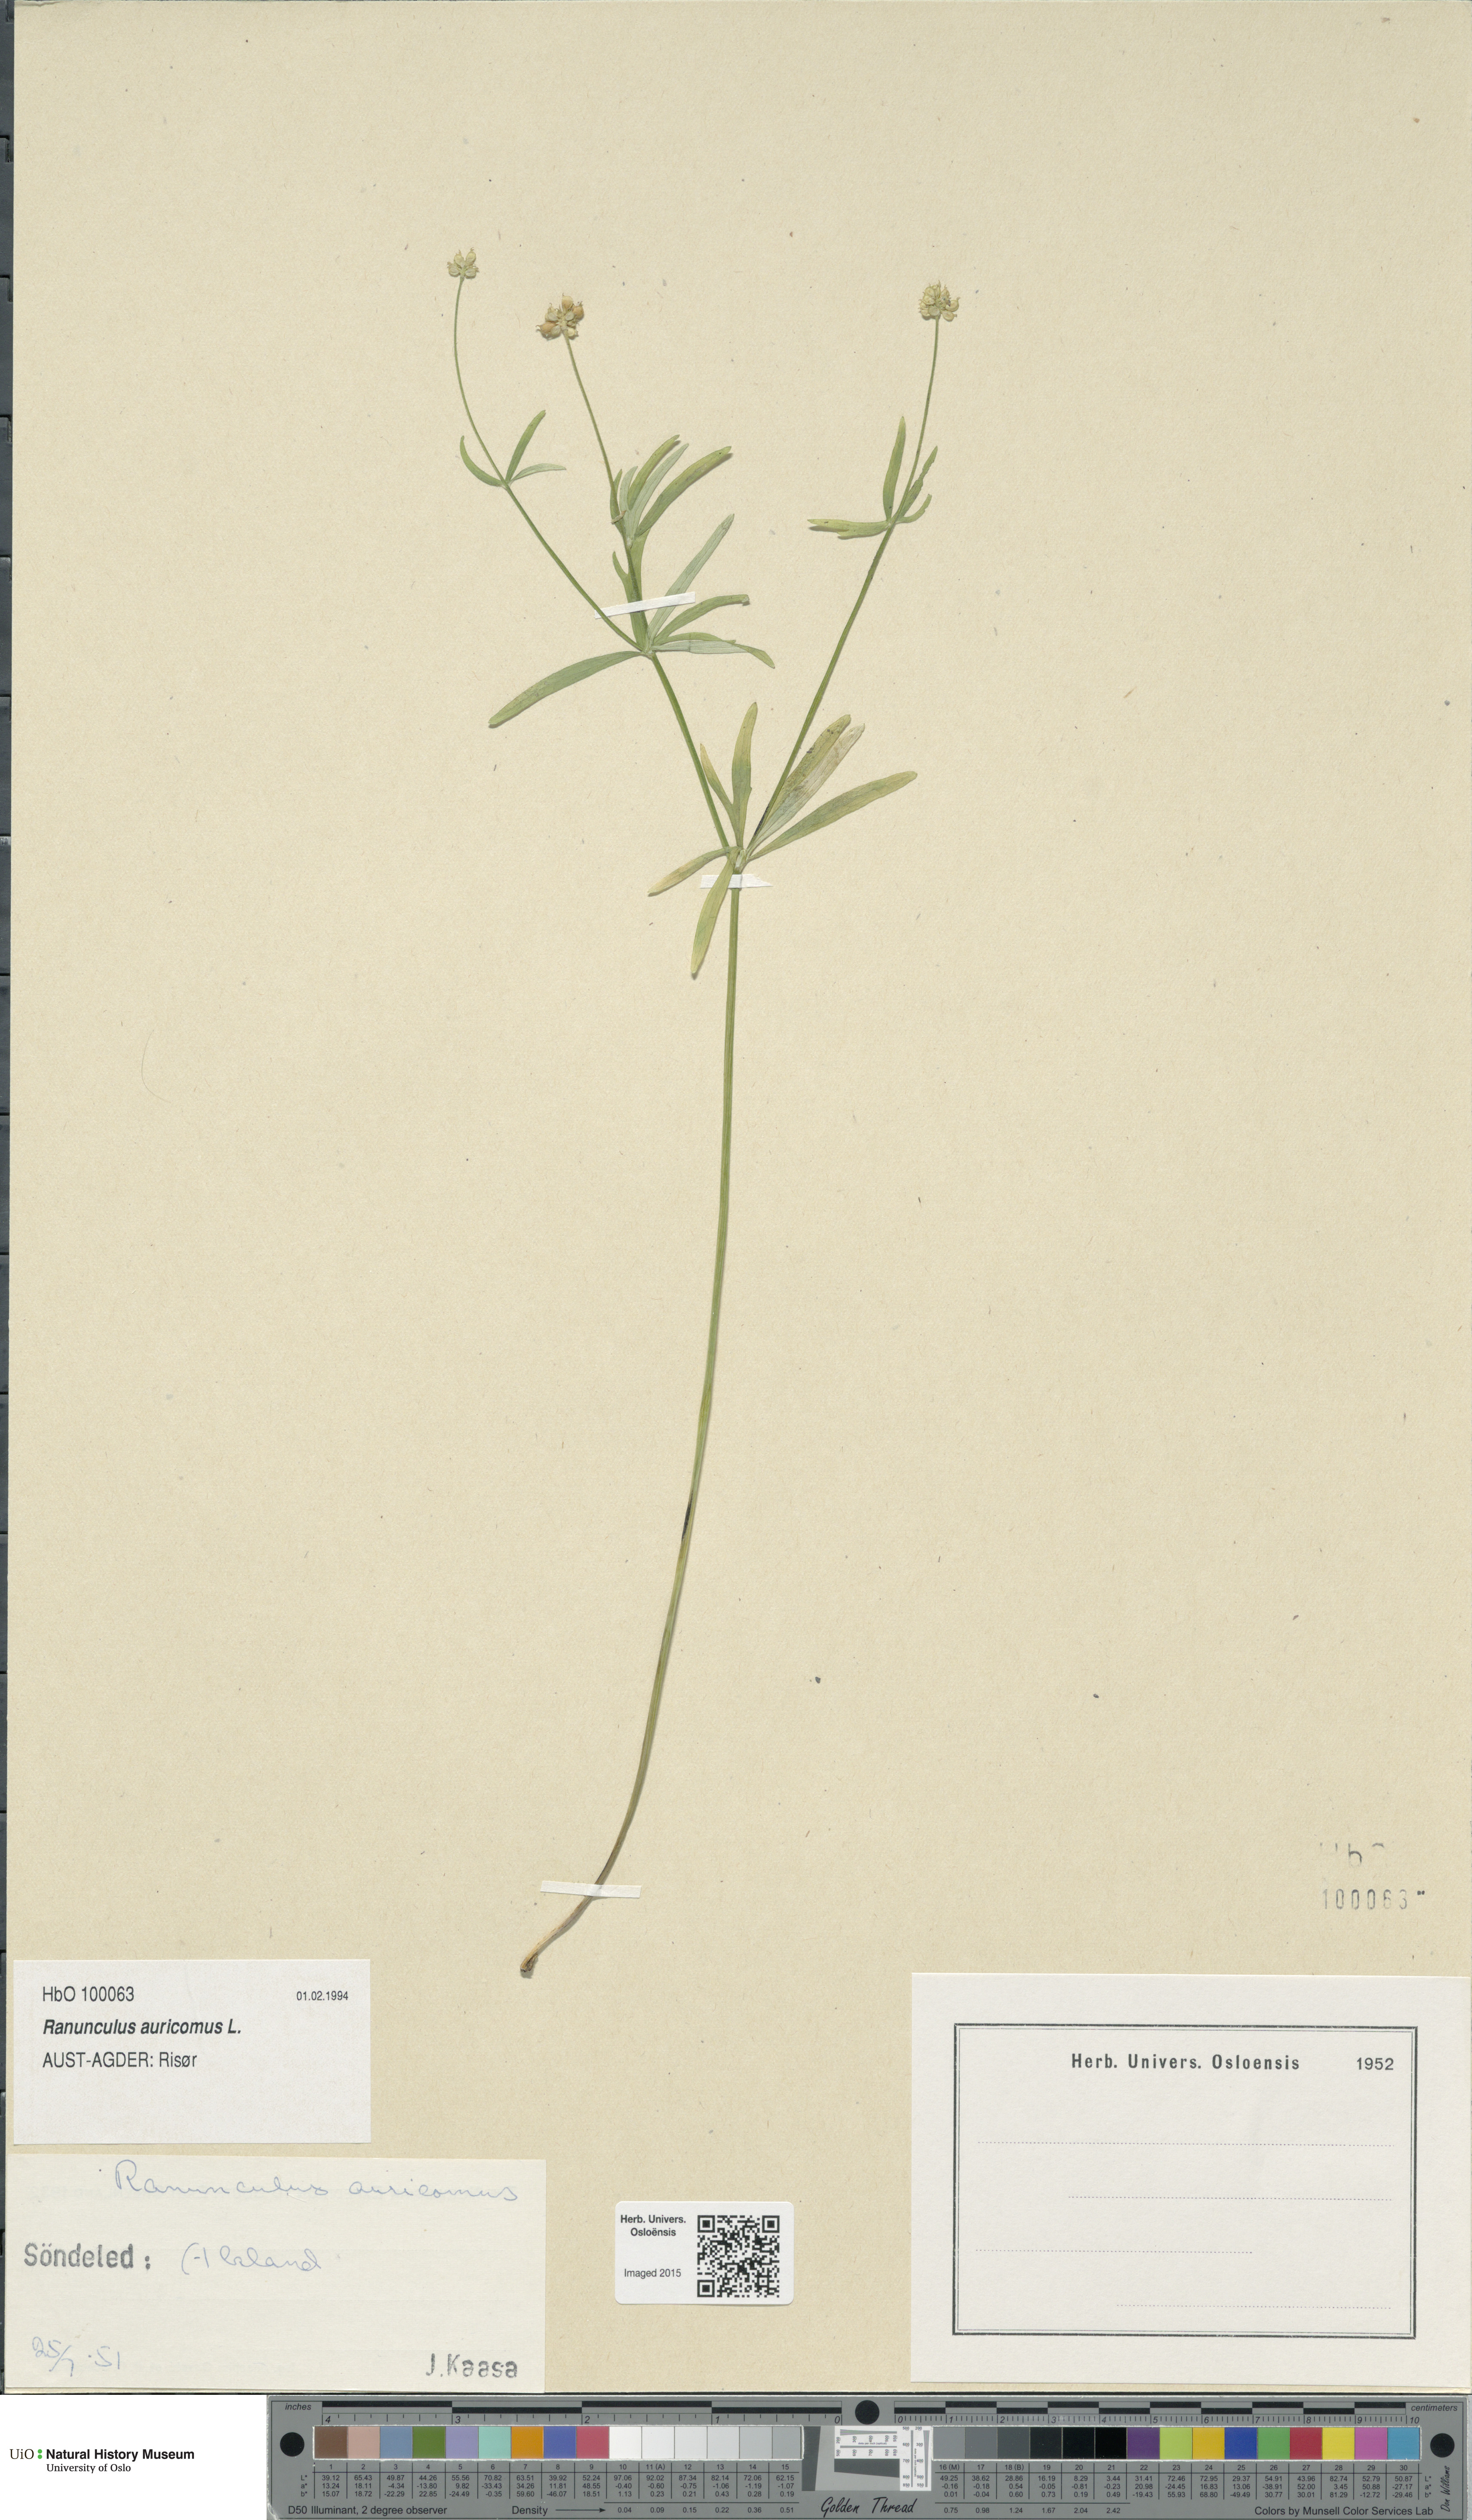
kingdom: Plantae
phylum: Tracheophyta
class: Magnoliopsida
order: Ranunculales
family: Ranunculaceae
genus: Ranunculus
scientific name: Ranunculus auricomus
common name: Goldilocks buttercup
